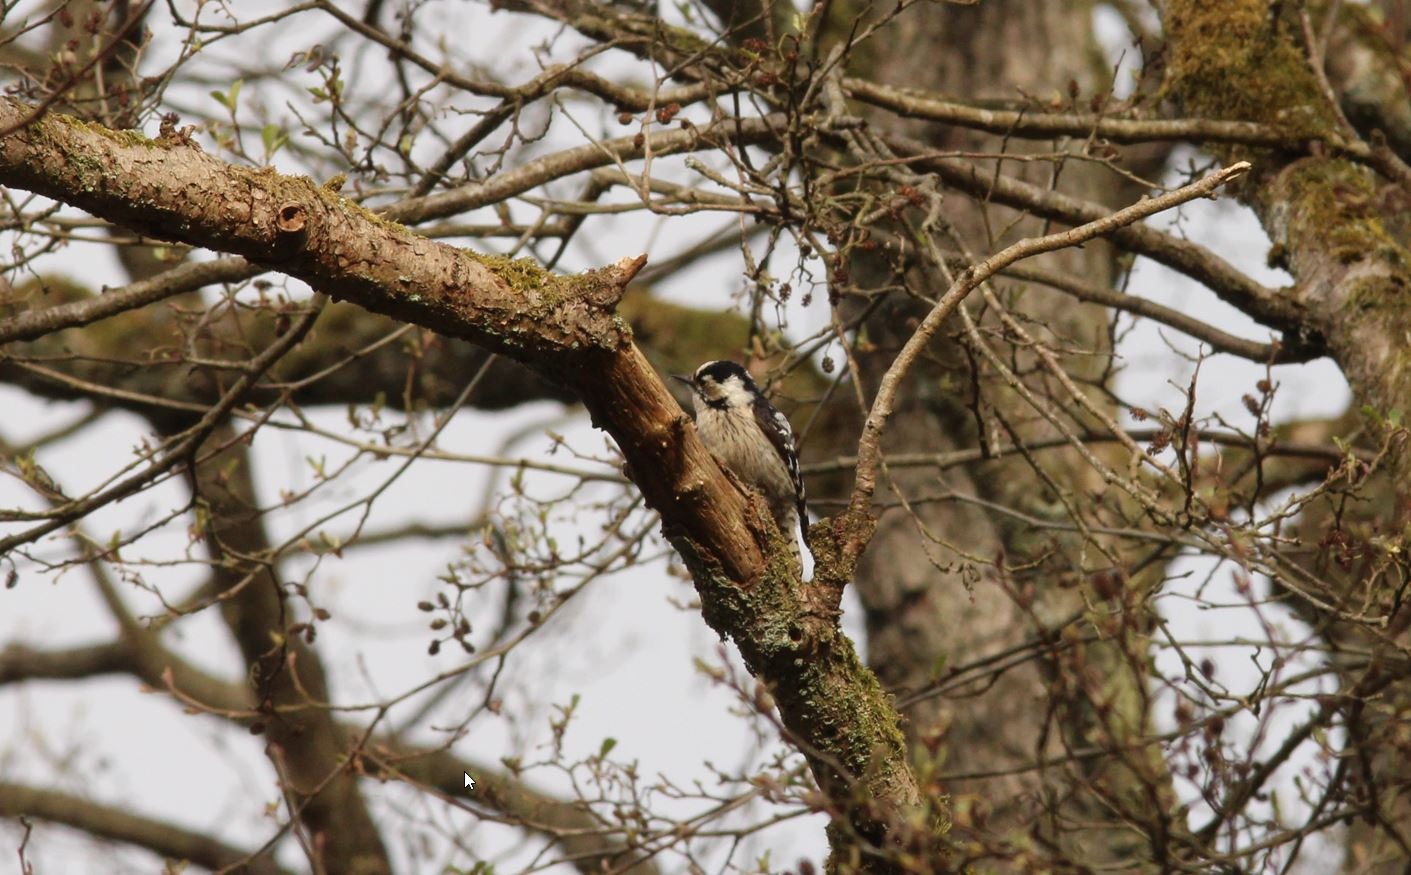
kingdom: Animalia
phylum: Chordata
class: Aves
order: Piciformes
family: Picidae
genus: Dryobates
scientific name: Dryobates minor
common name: Lille flagspætte
